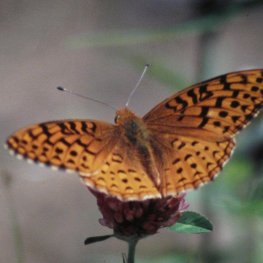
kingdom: Animalia
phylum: Arthropoda
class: Insecta
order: Lepidoptera
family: Nymphalidae
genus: Speyeria
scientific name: Speyeria aphrodite
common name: Aphrodite Fritillary
